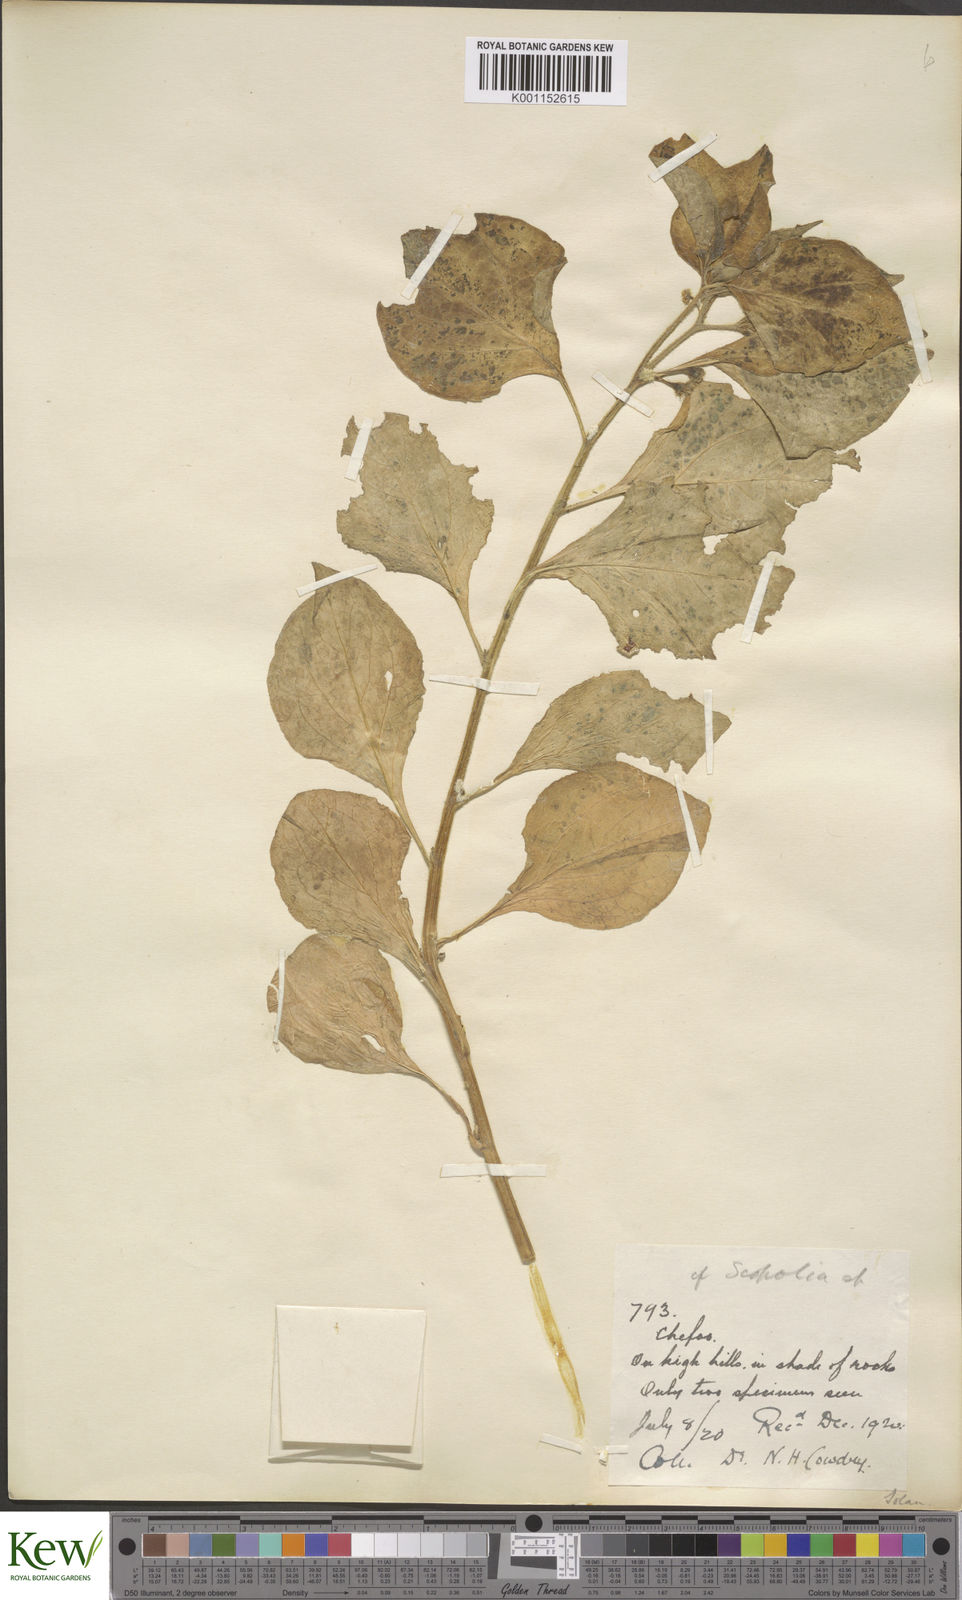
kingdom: Plantae
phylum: Tracheophyta
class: Magnoliopsida
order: Solanales
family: Solanaceae
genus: Solanum
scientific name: Solanum
